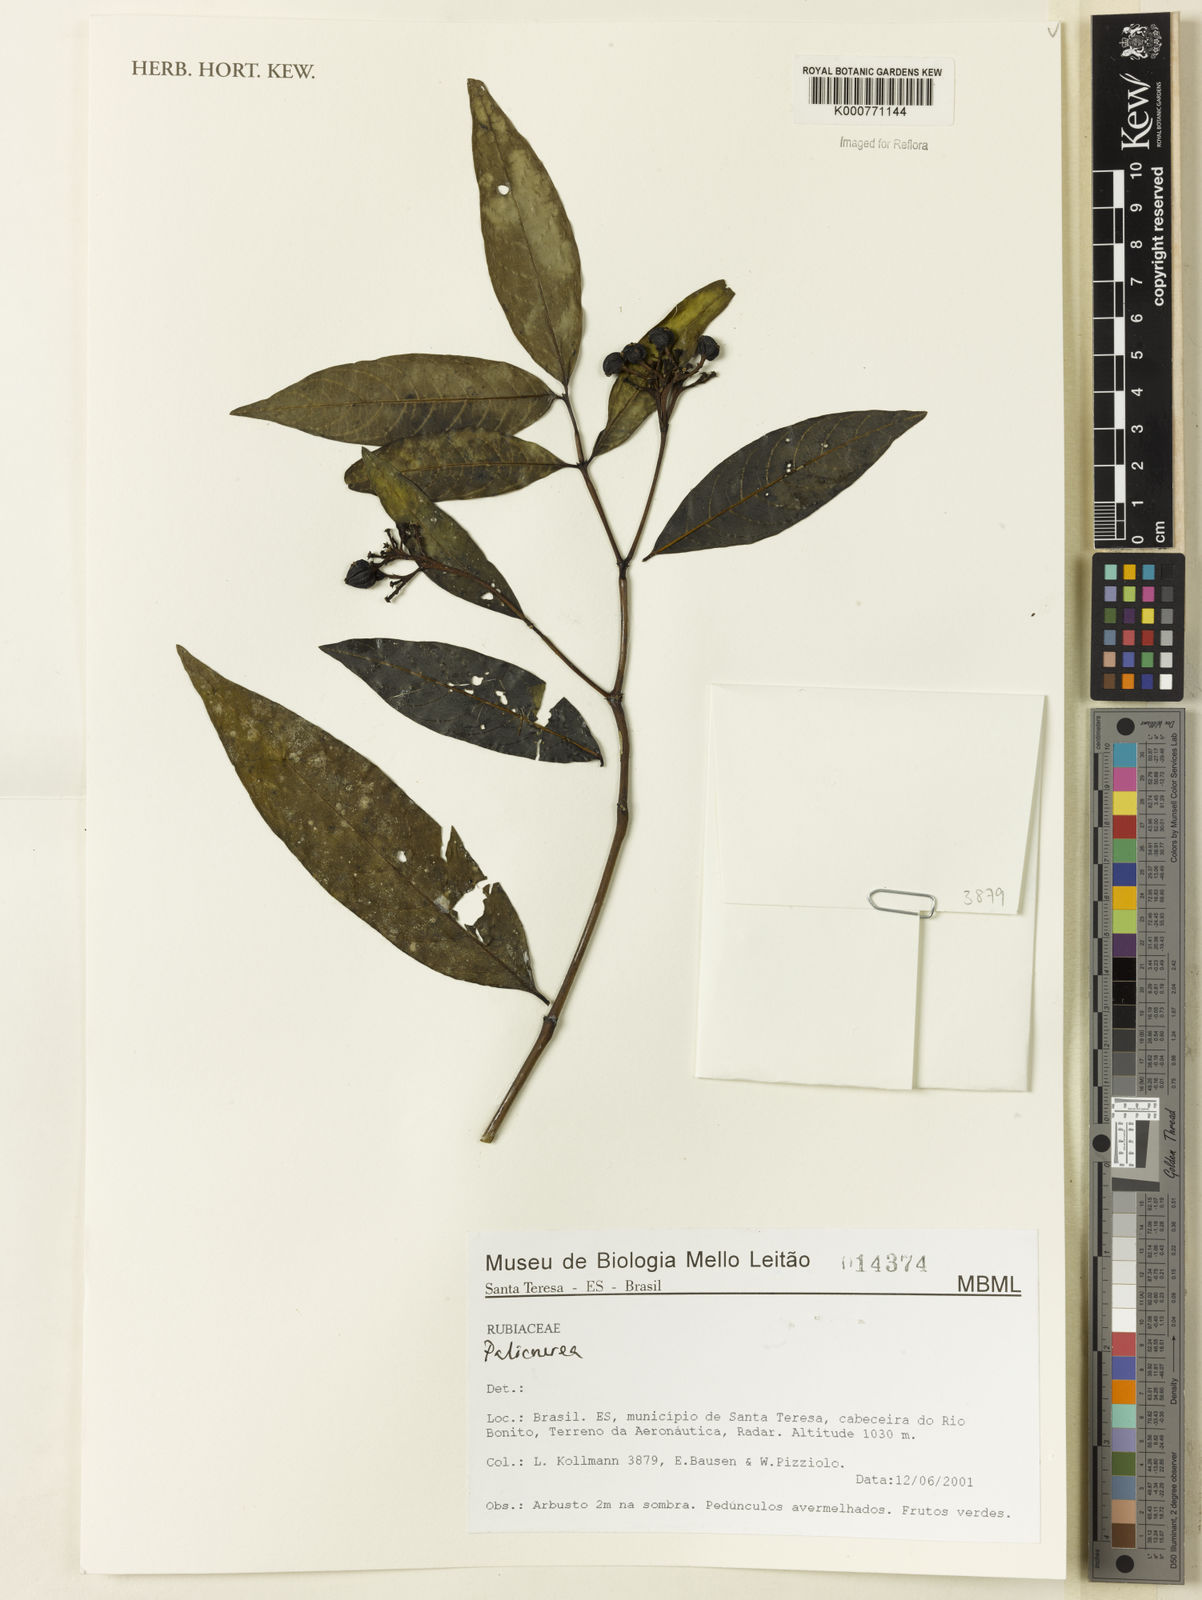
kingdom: Plantae
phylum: Tracheophyta
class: Magnoliopsida
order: Gentianales
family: Rubiaceae
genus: Palicourea
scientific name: Palicourea
